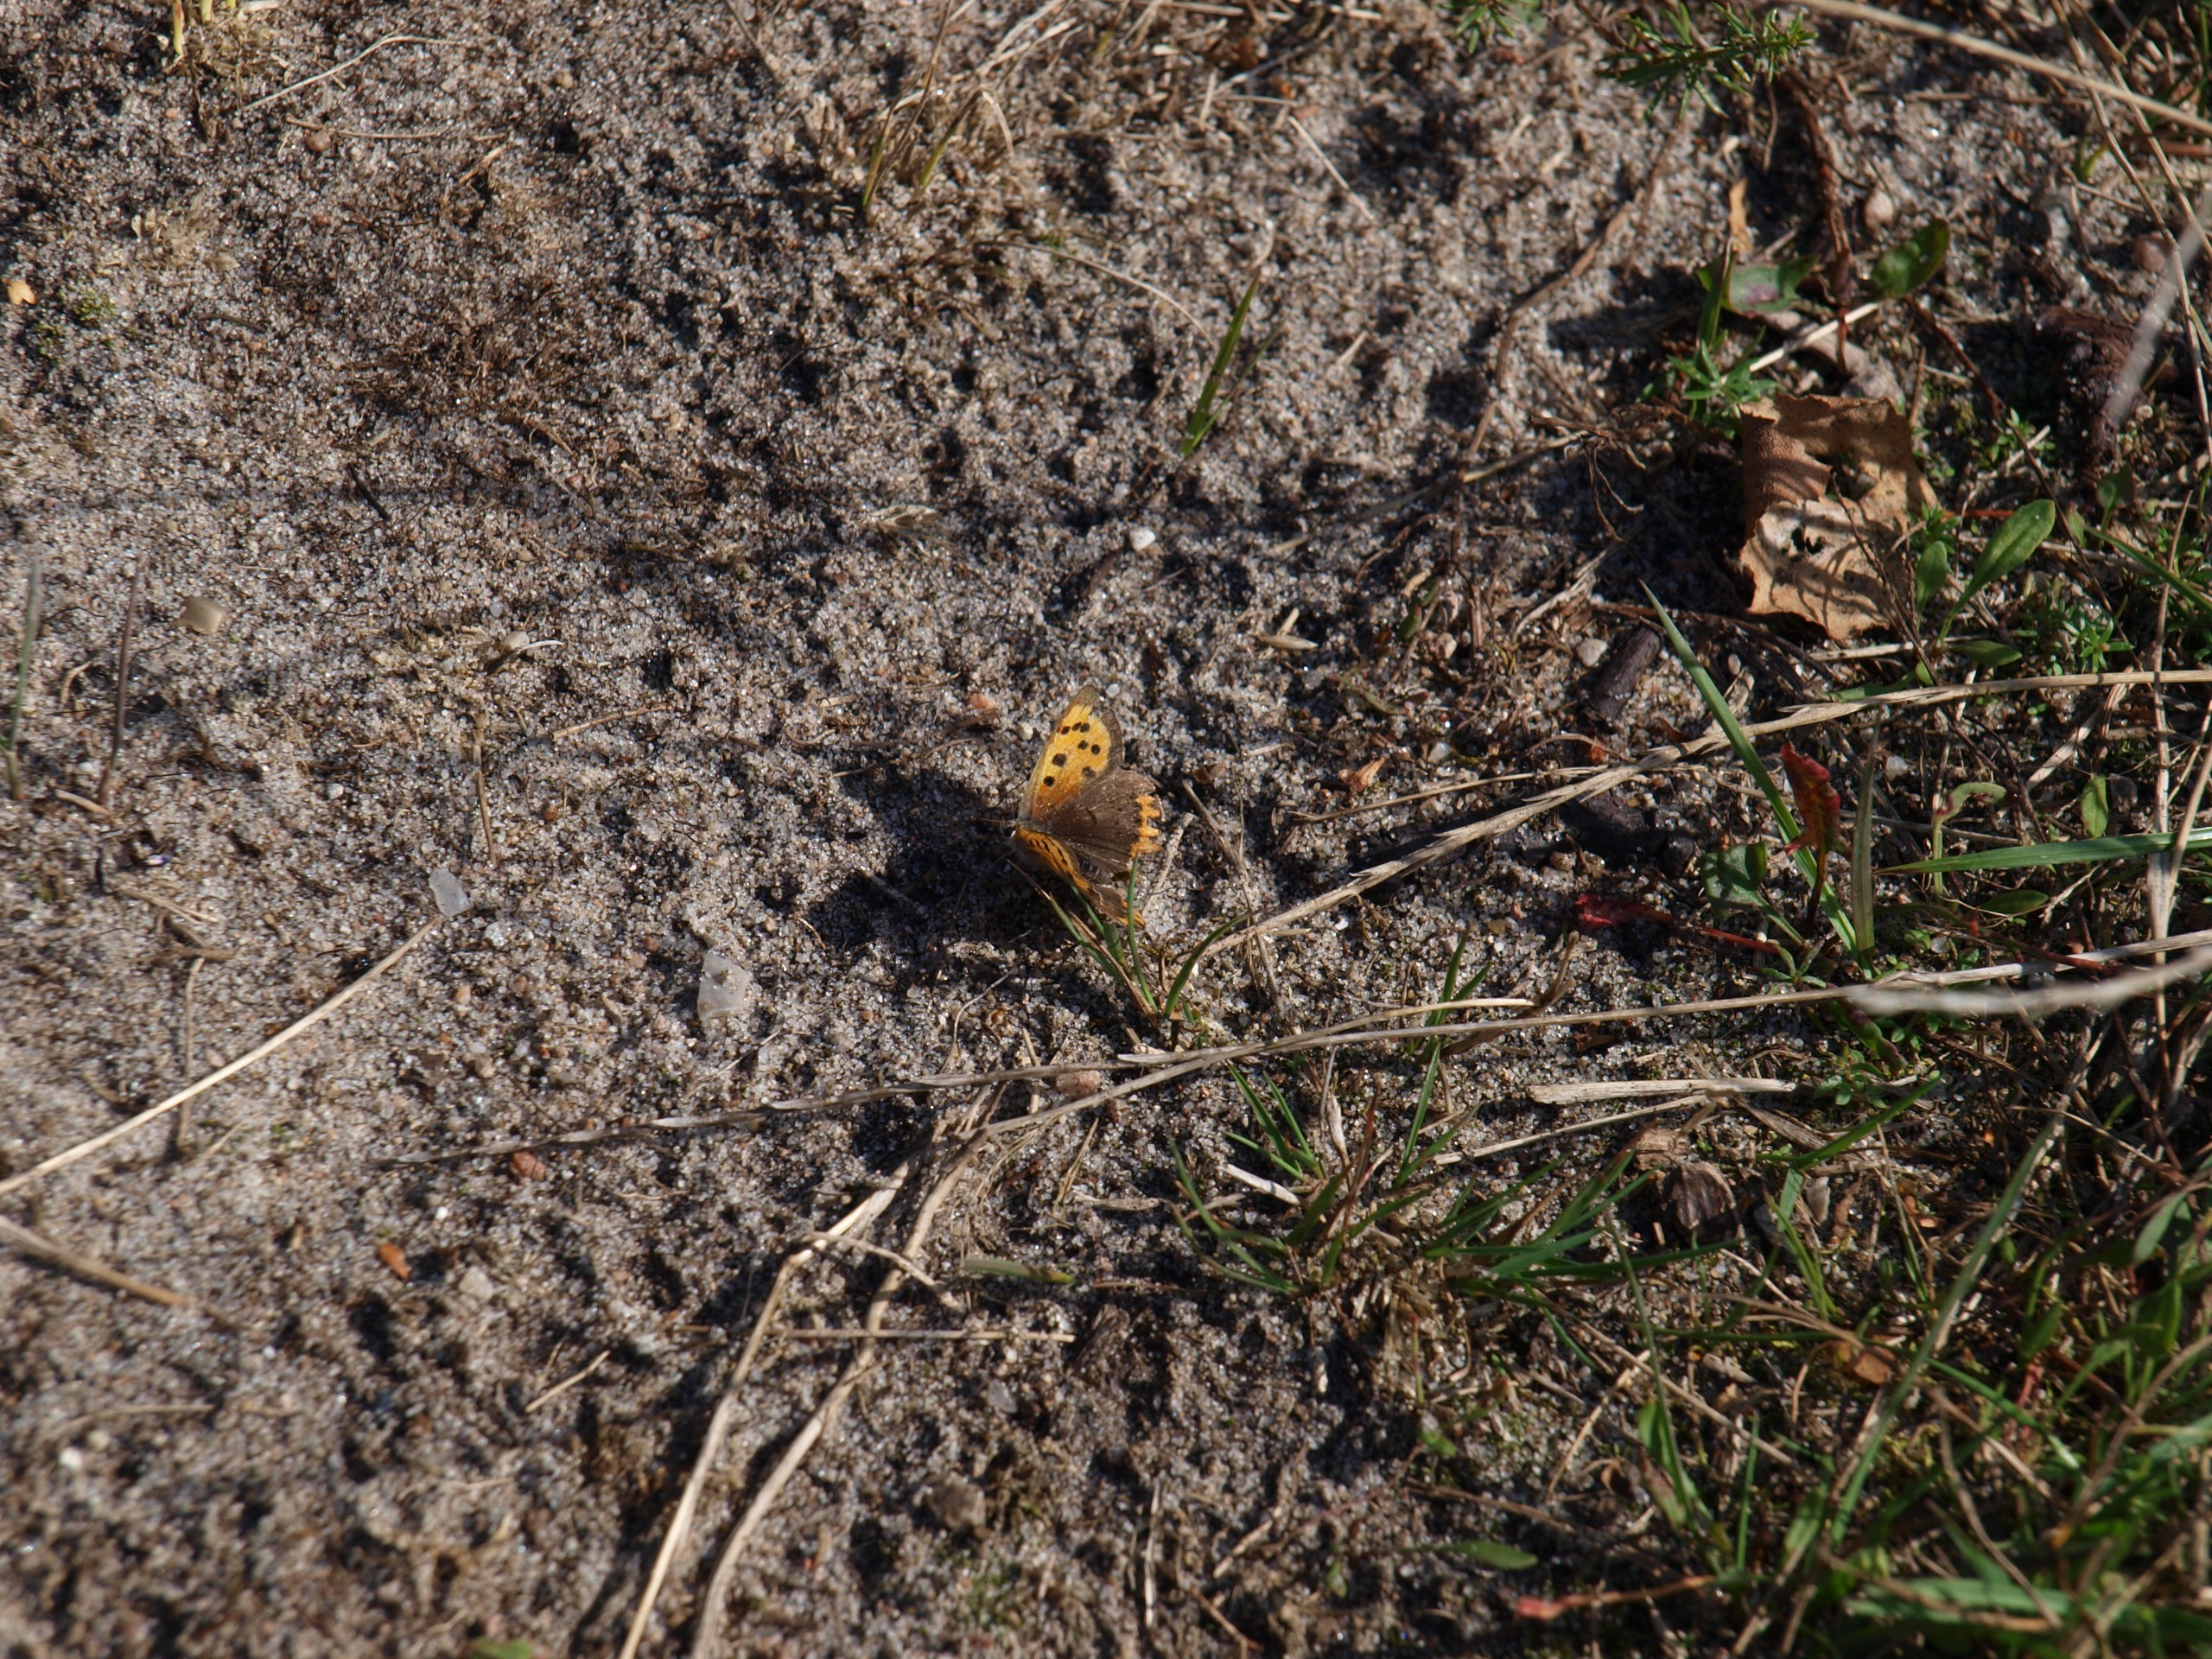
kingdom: Animalia
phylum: Arthropoda
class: Insecta
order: Lepidoptera
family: Lycaenidae
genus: Lycaena
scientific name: Lycaena phlaeas
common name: Lille ildfugl
